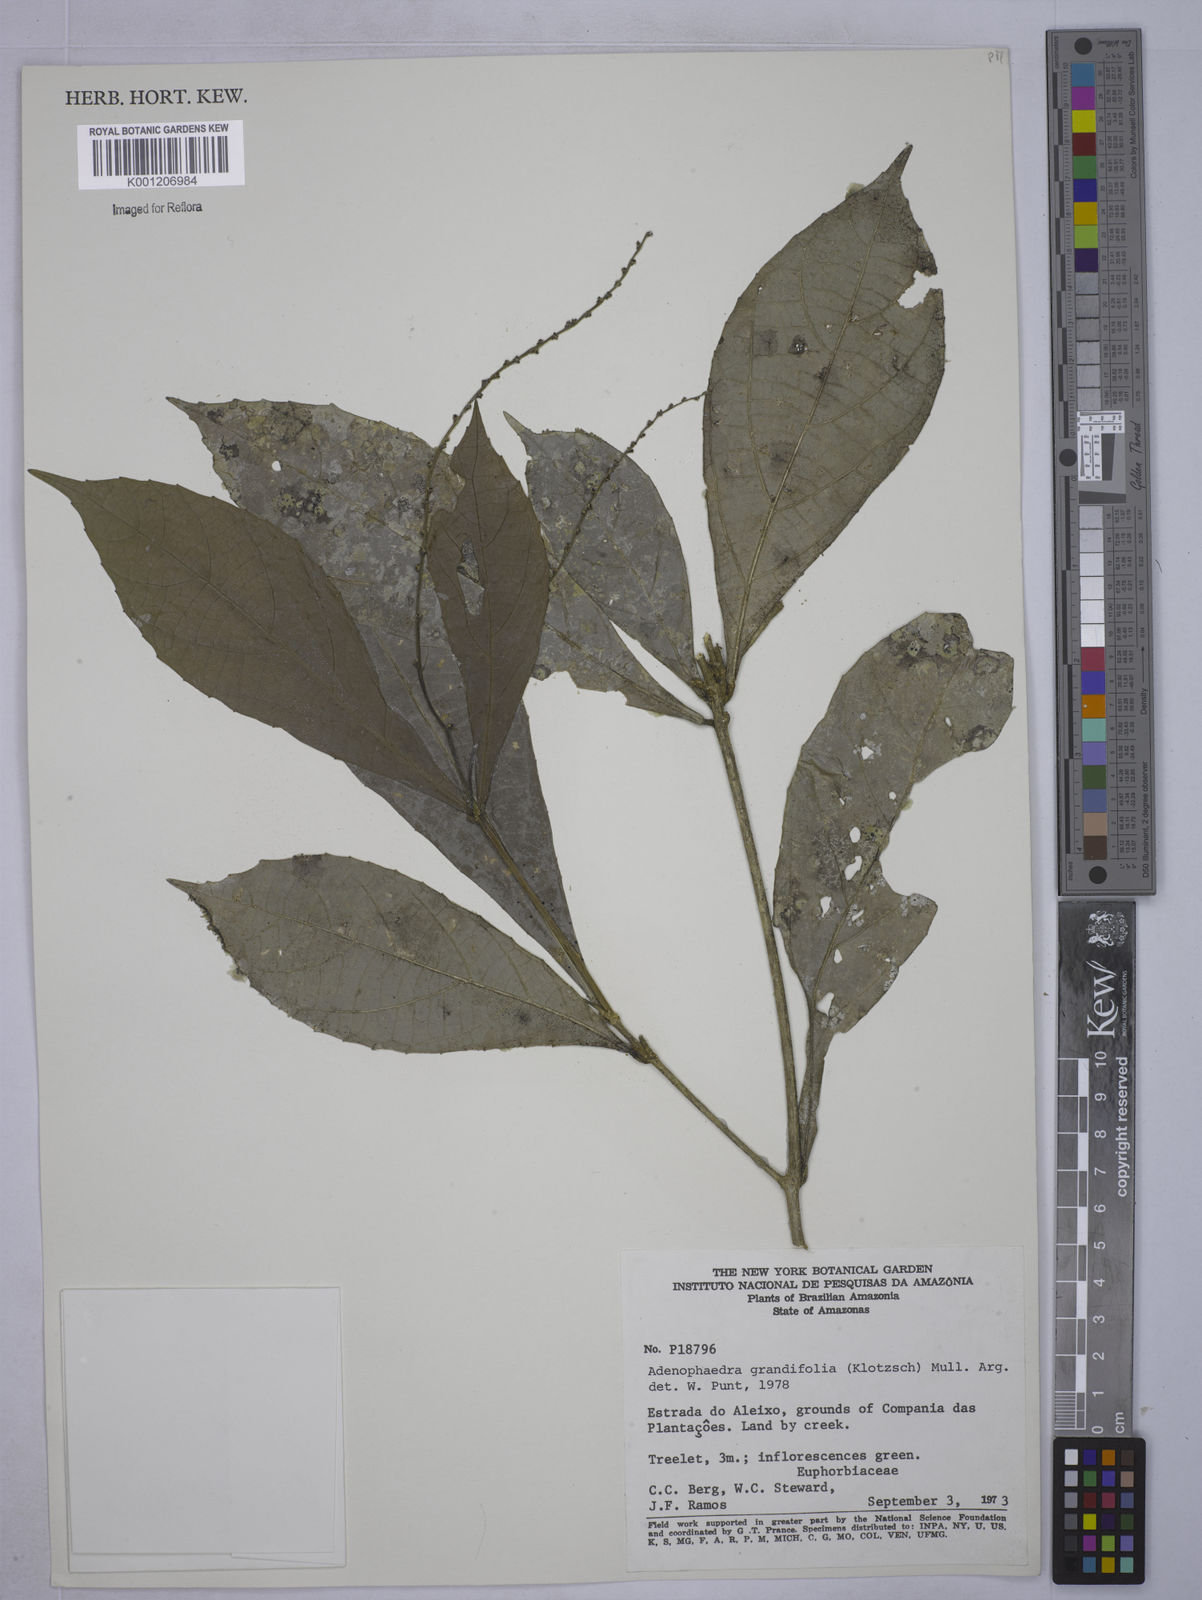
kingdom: Plantae
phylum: Tracheophyta
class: Magnoliopsida
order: Malpighiales
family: Euphorbiaceae
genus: Adenophaedra
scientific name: Adenophaedra
